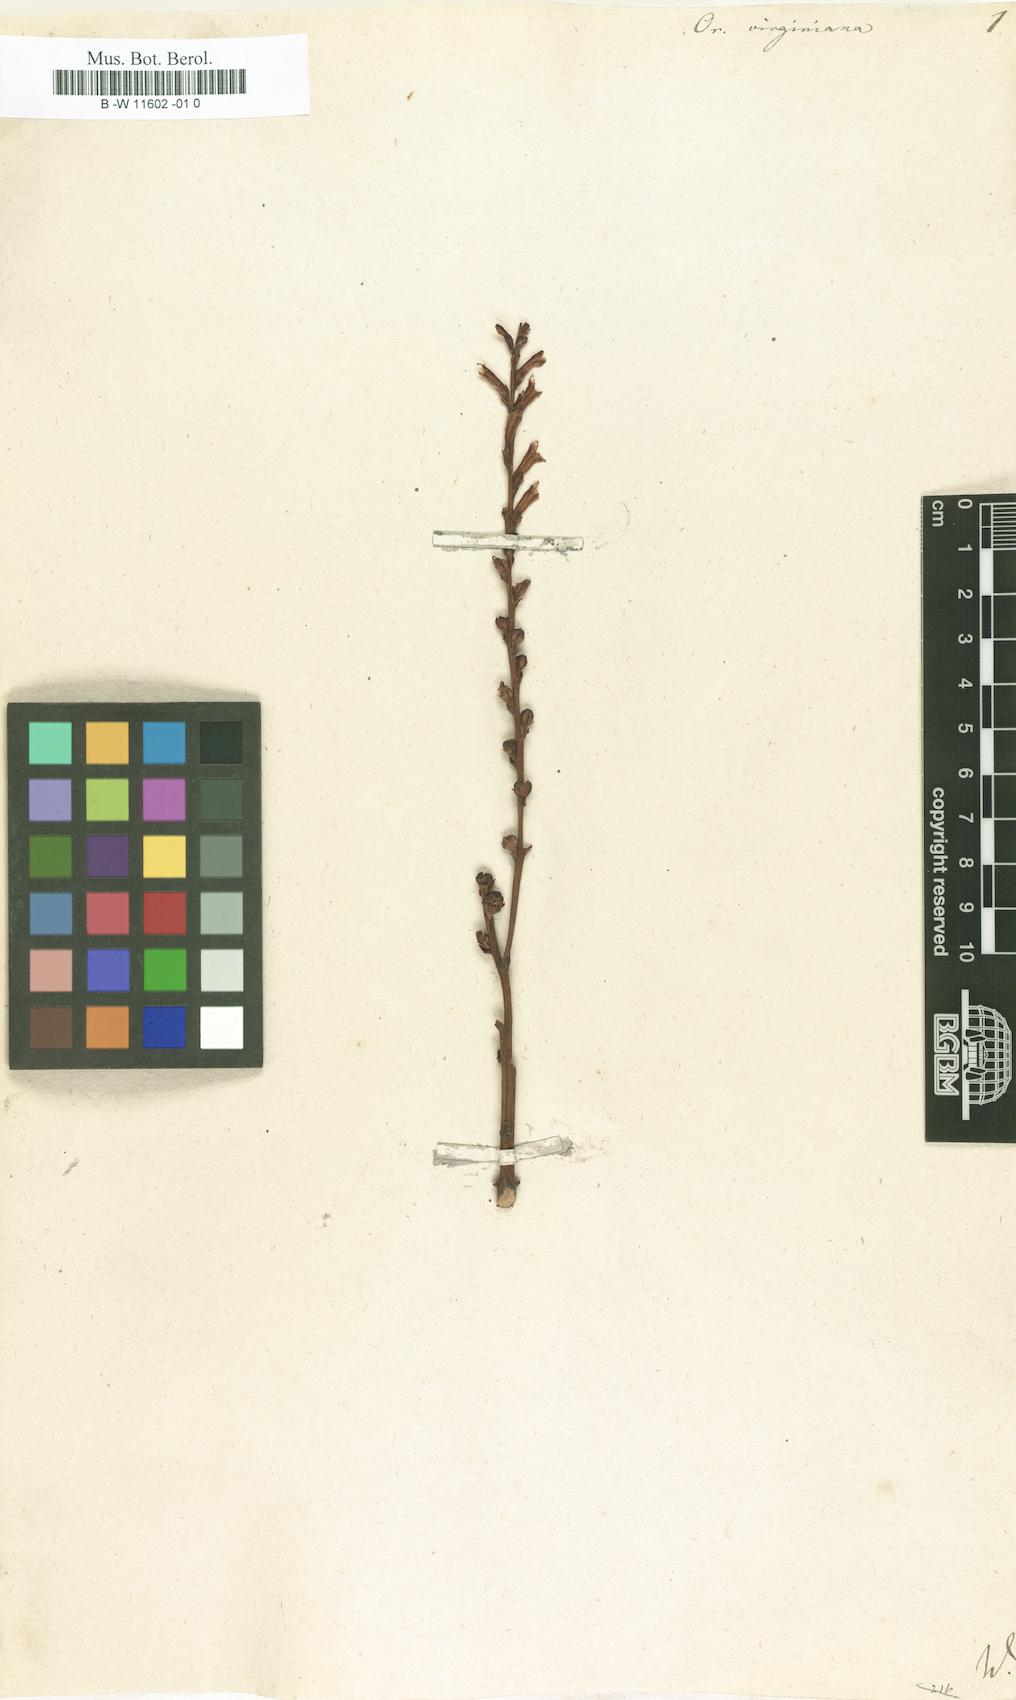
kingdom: Plantae
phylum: Tracheophyta
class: Magnoliopsida
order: Lamiales
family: Orobanchaceae
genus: Epifagus
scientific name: Epifagus virginiana
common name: Beechdrops
